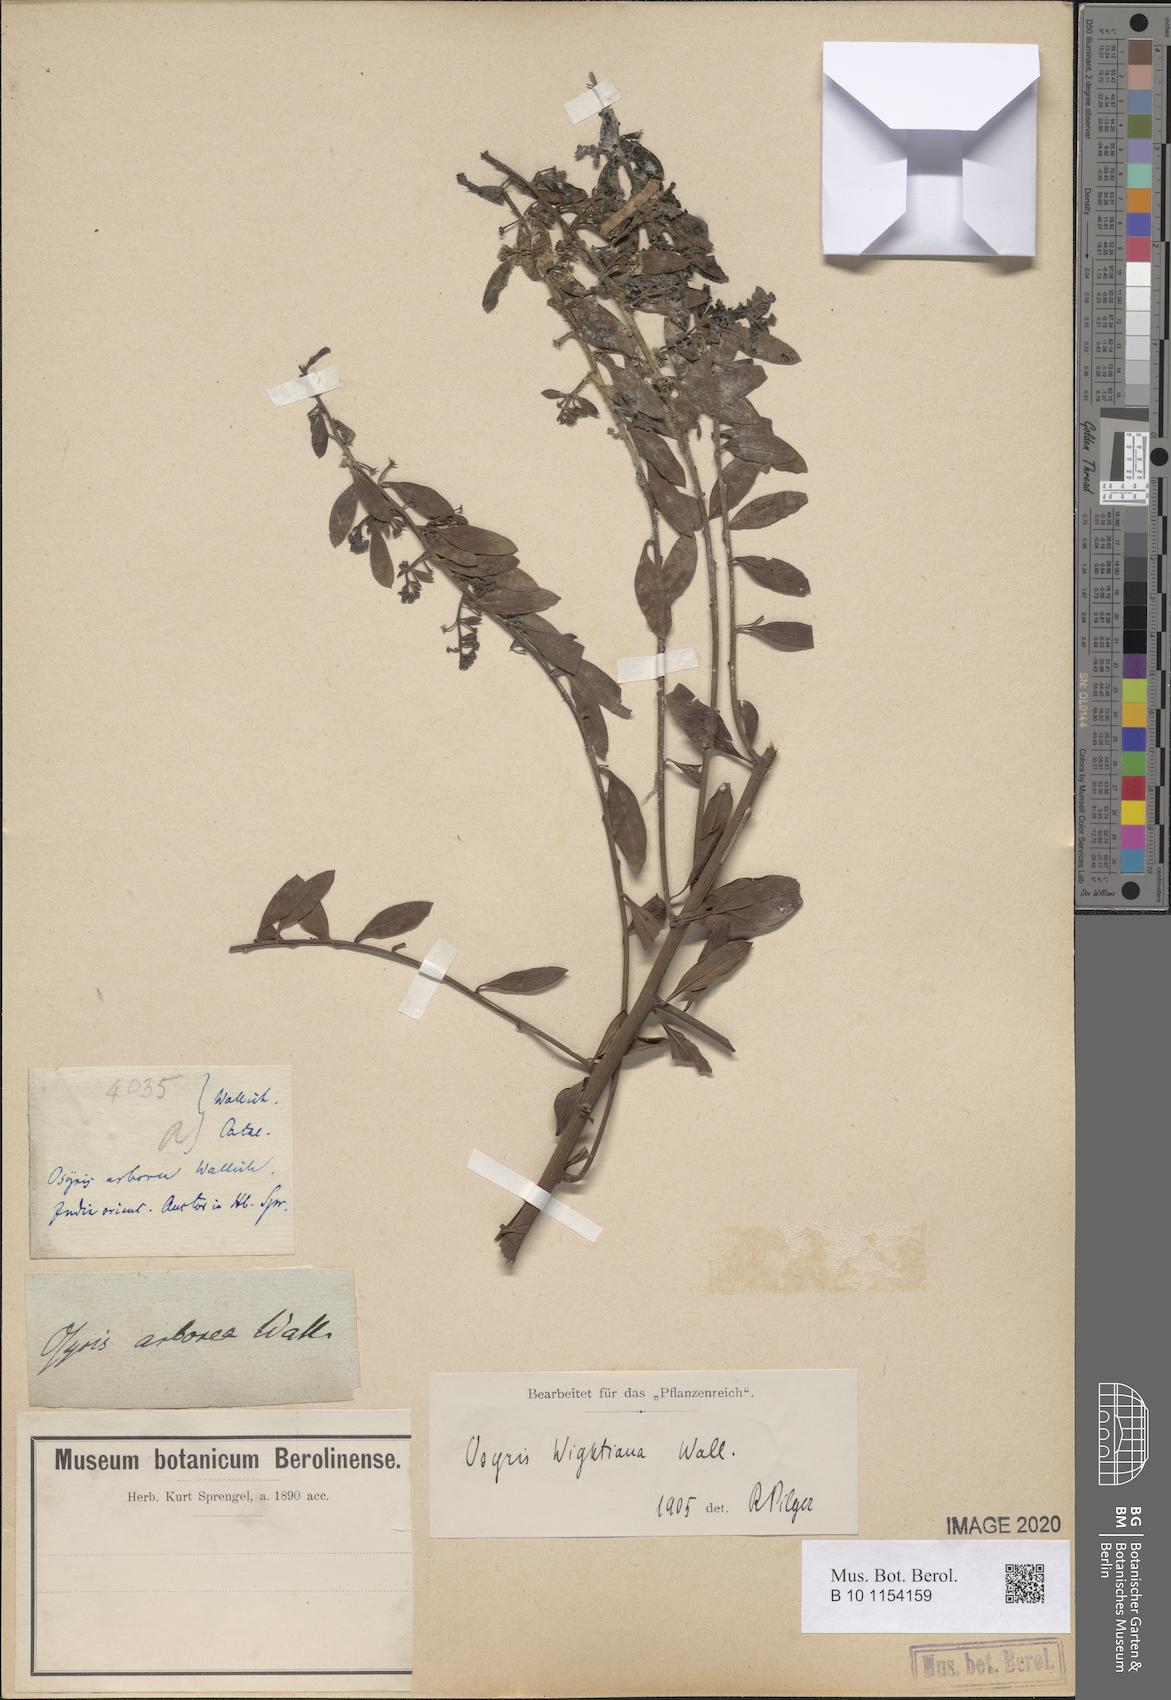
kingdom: Plantae
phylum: Tracheophyta
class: Magnoliopsida
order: Santalales
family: Santalaceae
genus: Osyris
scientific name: Osyris lanceolata
